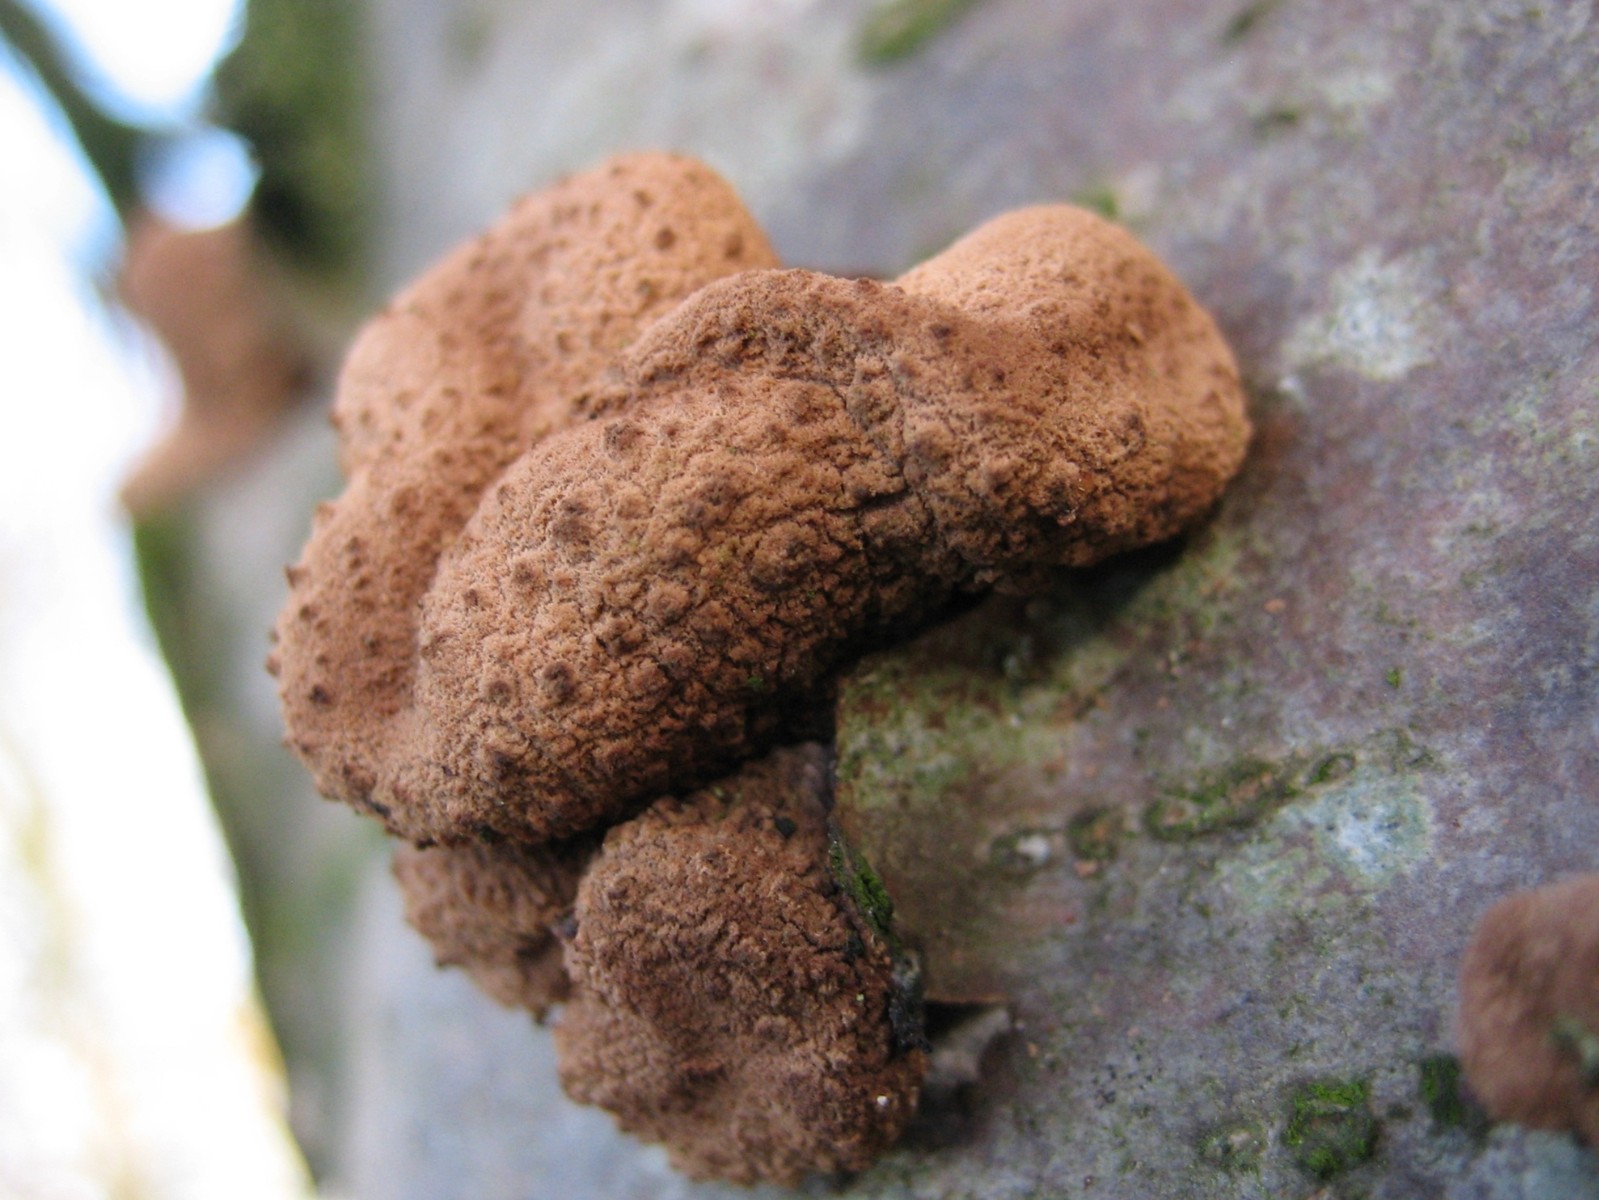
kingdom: Fungi
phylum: Ascomycota
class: Leotiomycetes
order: Helotiales
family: Cenangiaceae
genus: Encoelia
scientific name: Encoelia furfuracea
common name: hassel-læderskive
